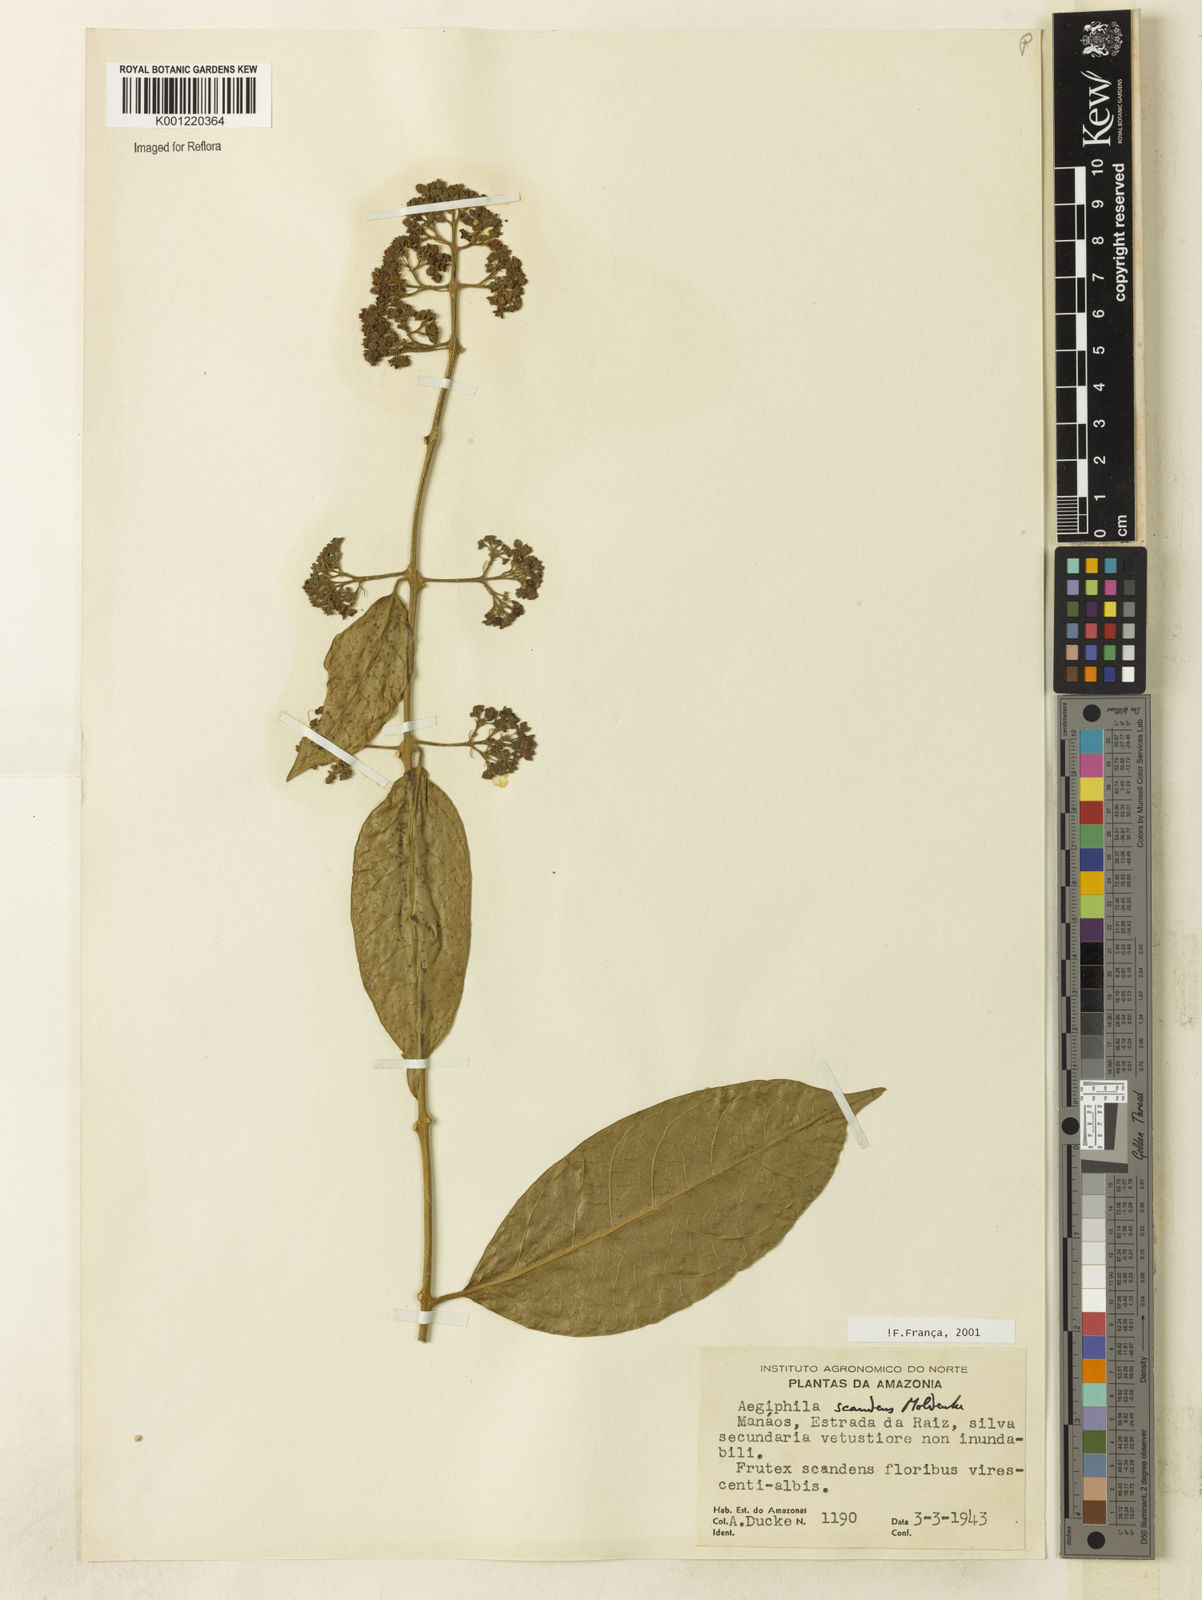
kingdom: Plantae
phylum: Tracheophyta
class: Magnoliopsida
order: Lamiales
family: Lamiaceae
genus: Aegiphila
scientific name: Aegiphila scandens
